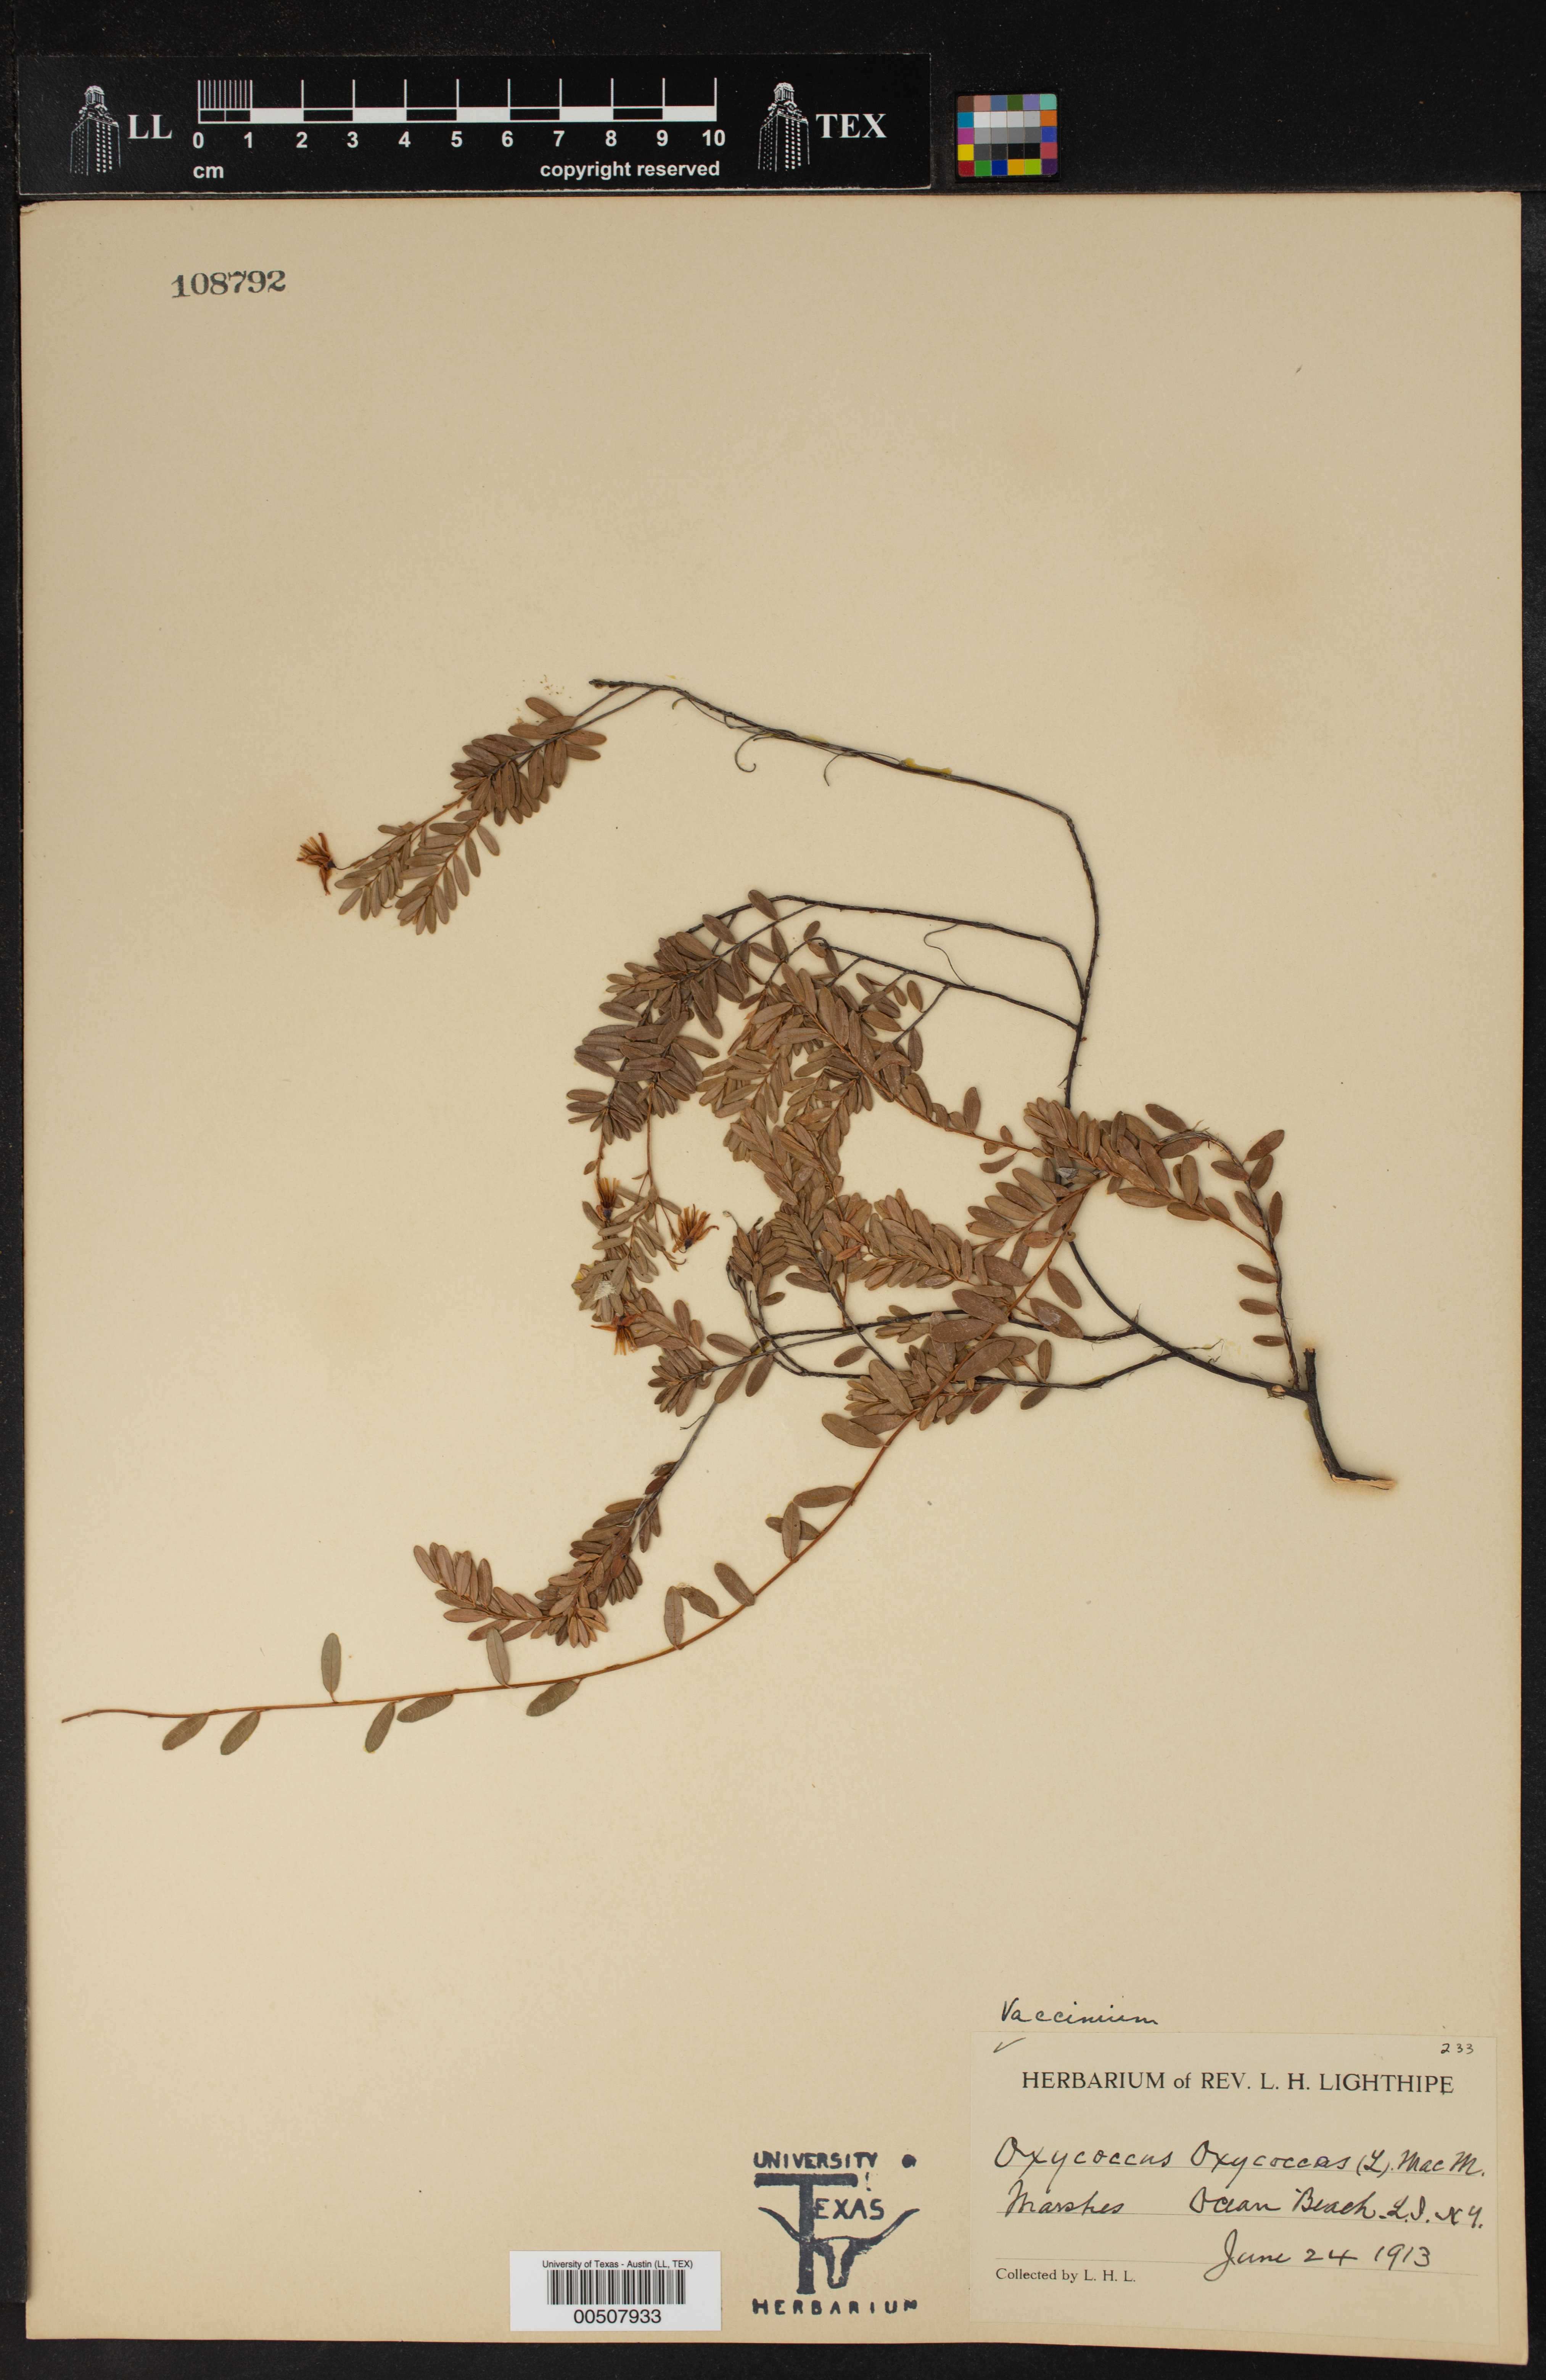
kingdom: Plantae
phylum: Tracheophyta
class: Magnoliopsida
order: Ericales
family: Ericaceae
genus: Vaccinium
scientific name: Vaccinium oxycoccos
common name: Cranberry
